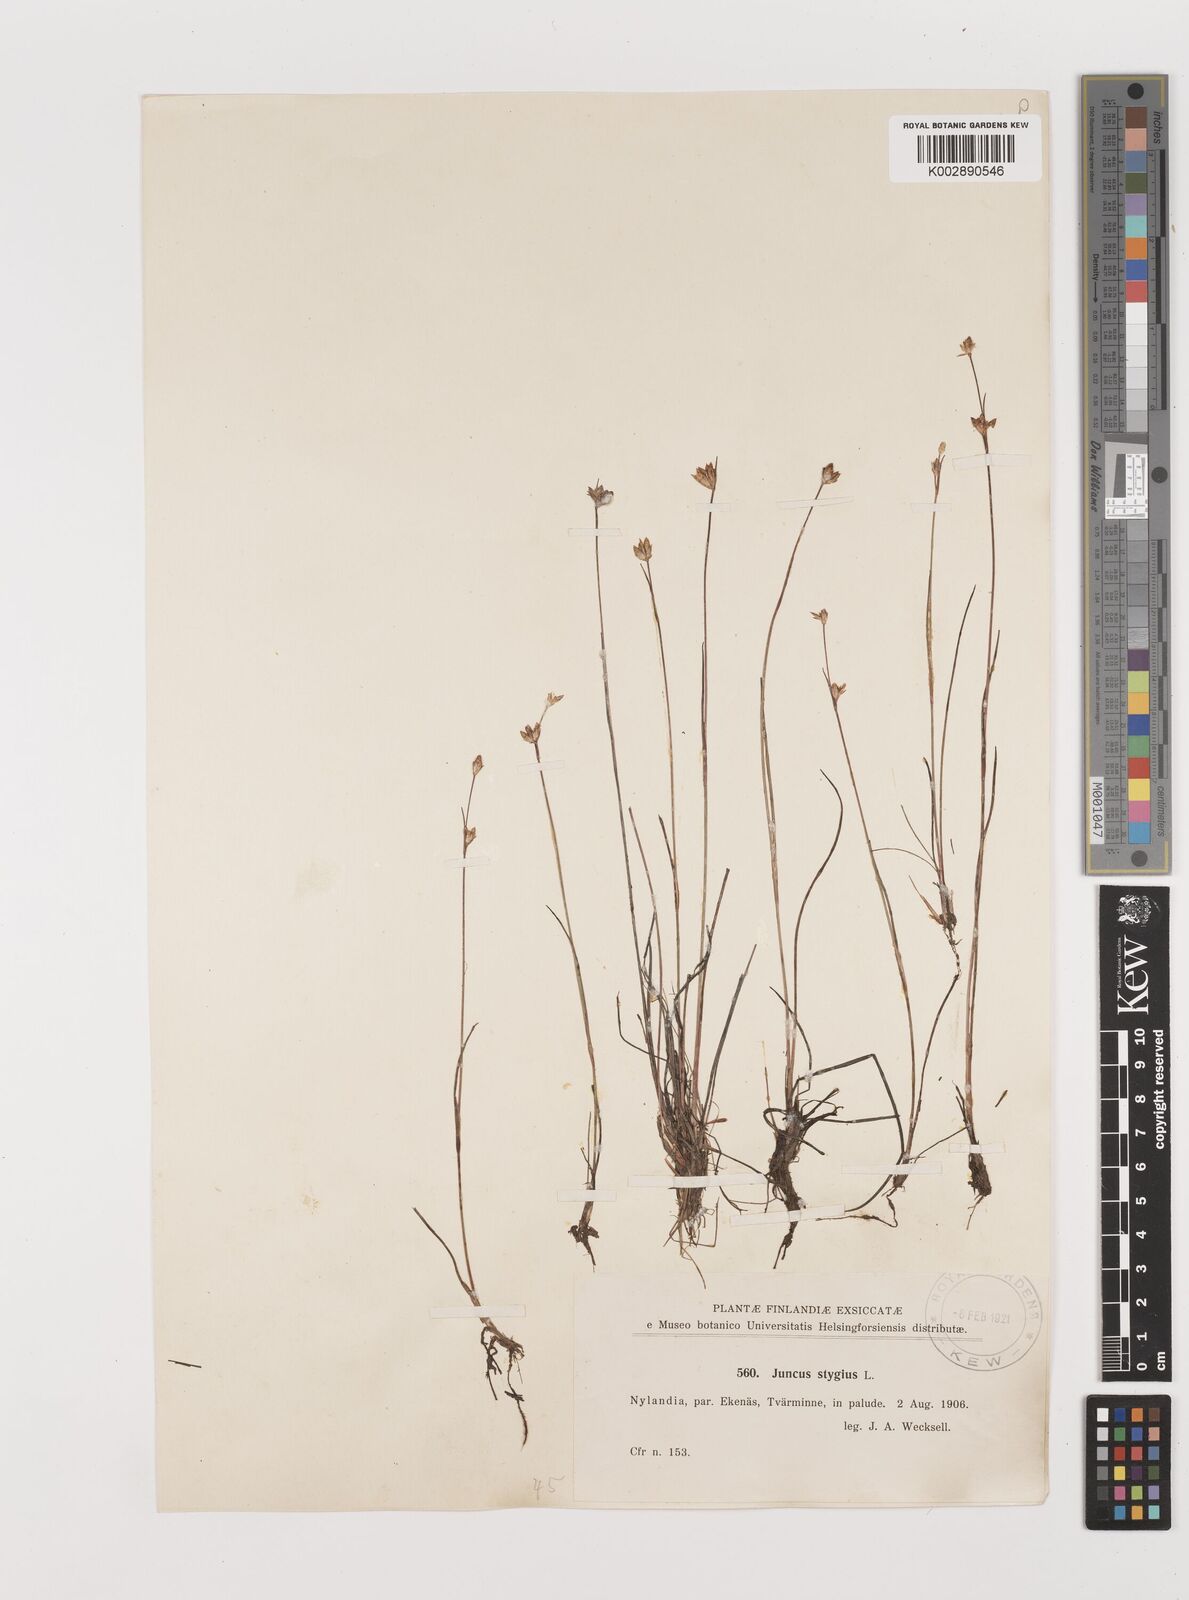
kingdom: Plantae
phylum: Tracheophyta
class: Liliopsida
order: Poales
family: Juncaceae
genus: Juncus
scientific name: Juncus stygius
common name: Bog rush
